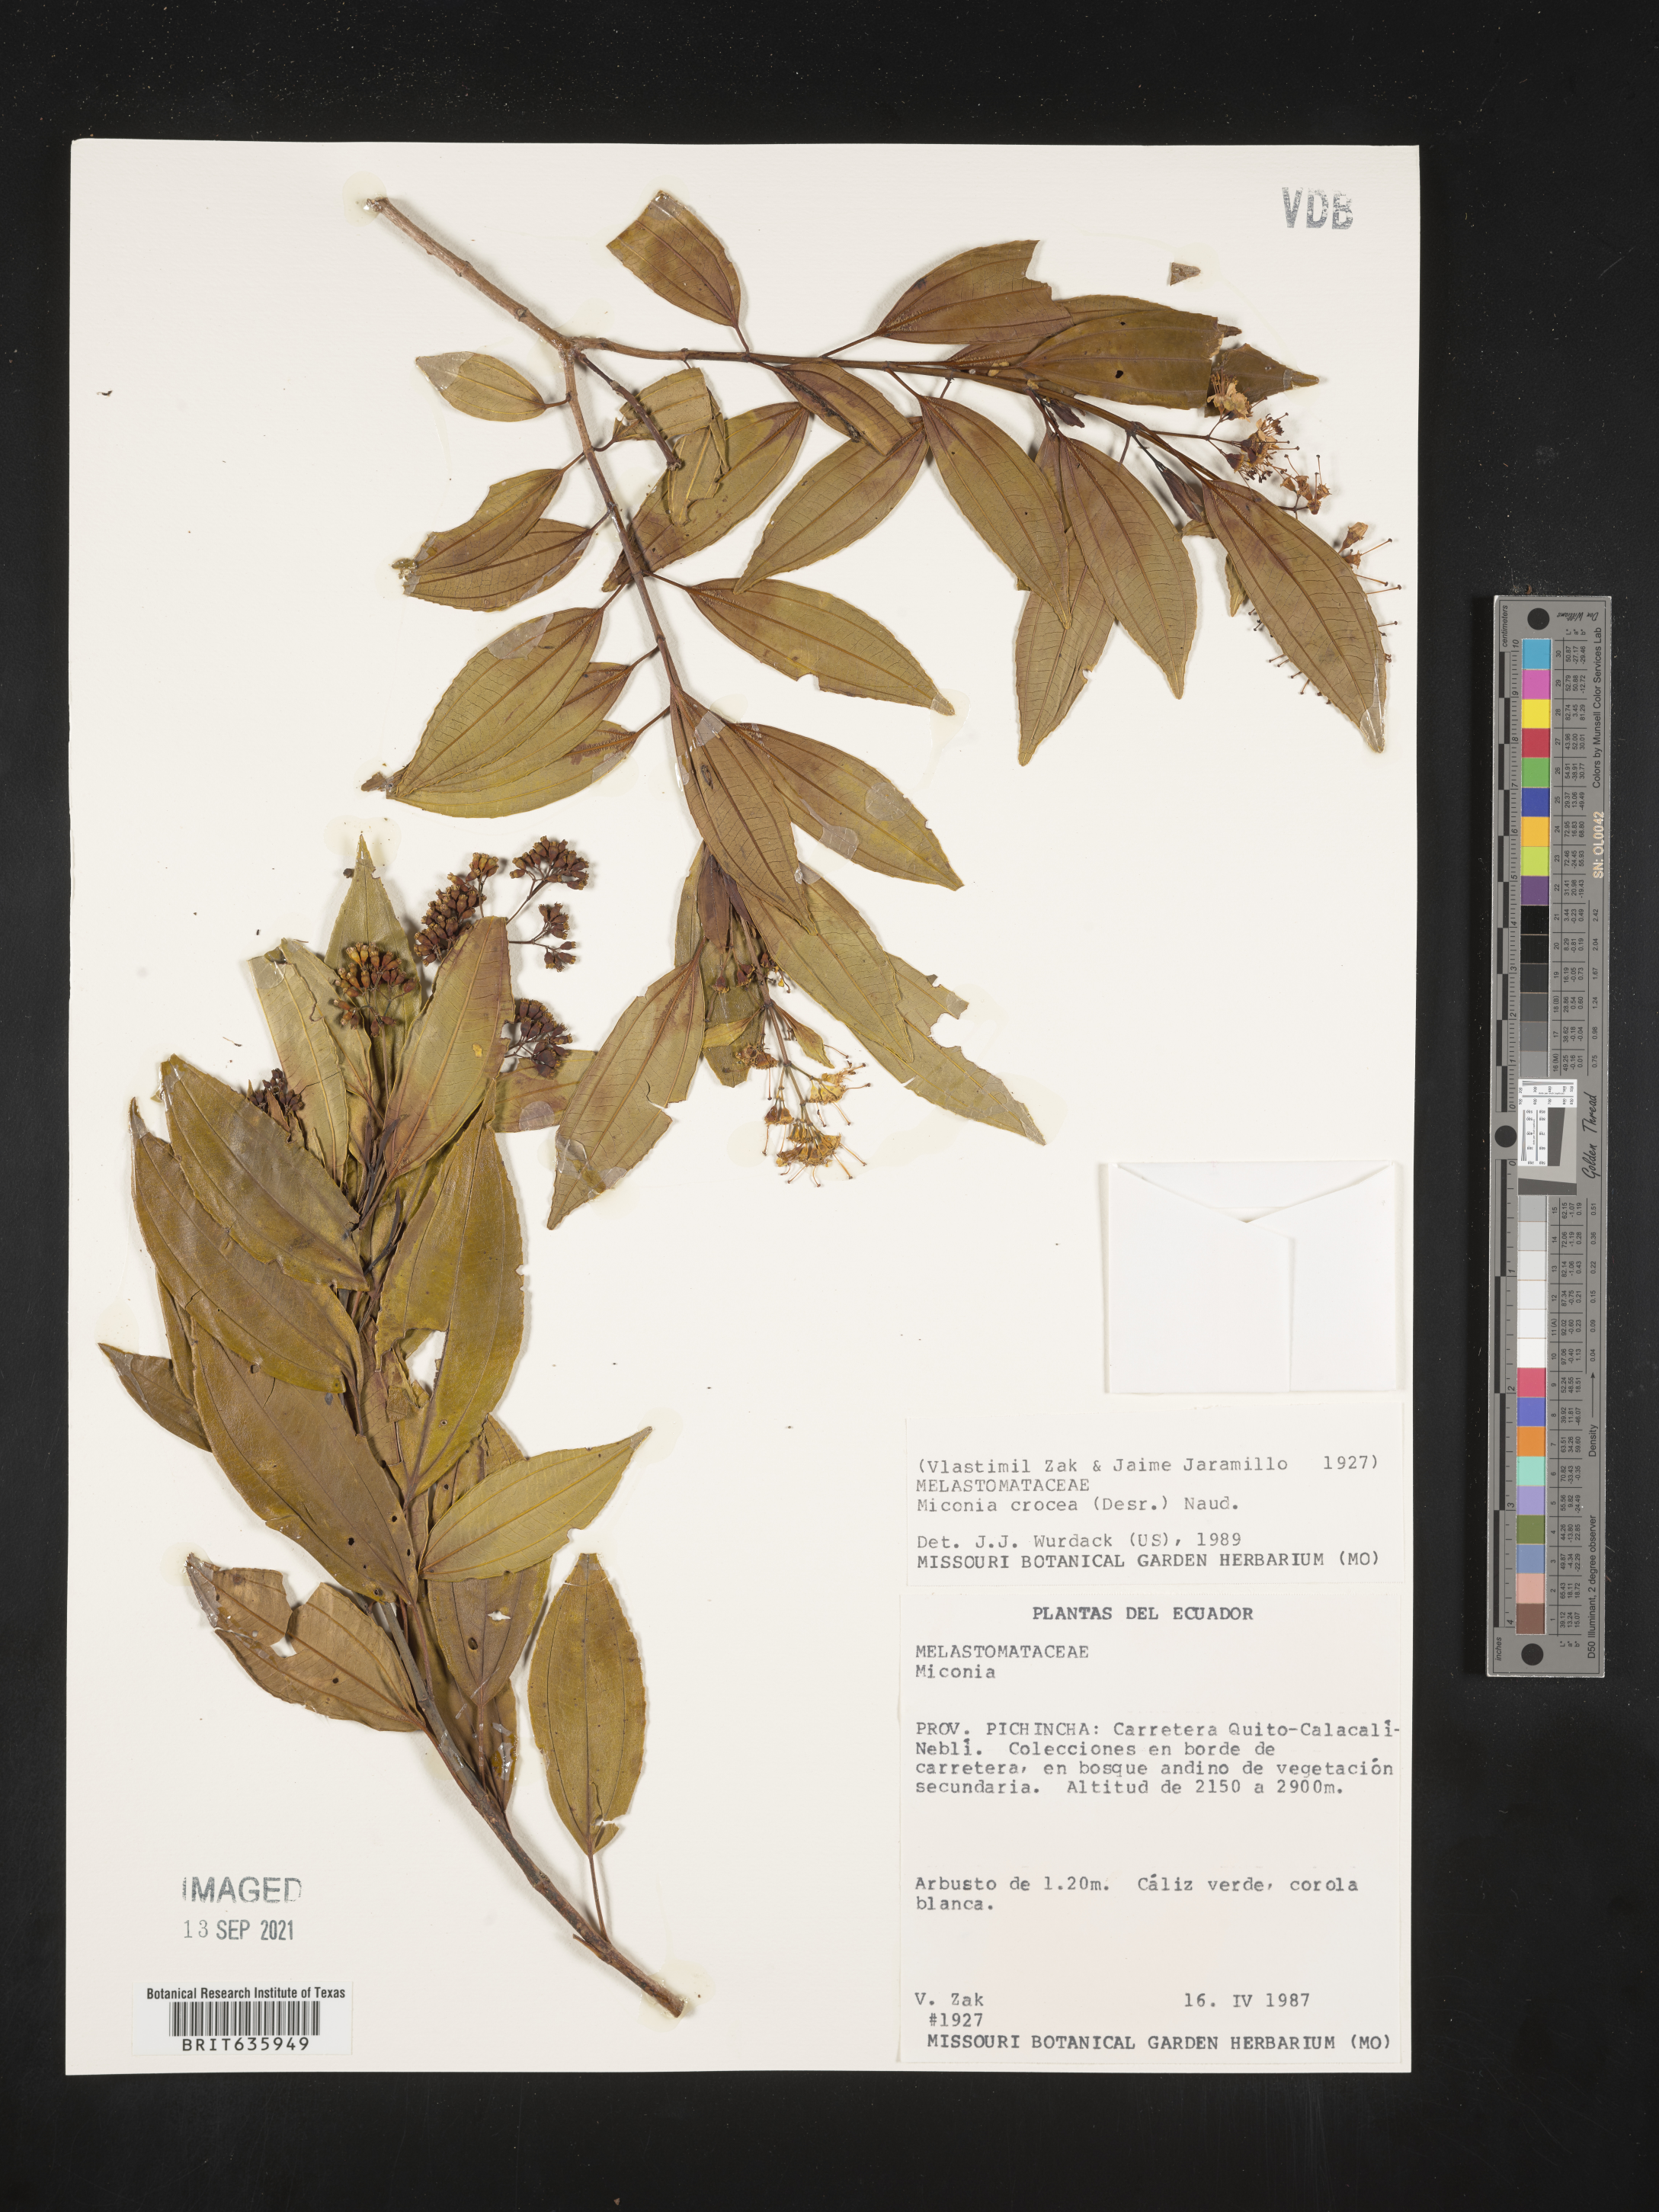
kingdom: Plantae
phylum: Tracheophyta
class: Magnoliopsida
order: Myrtales
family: Melastomataceae
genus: Miconia
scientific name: Miconia
